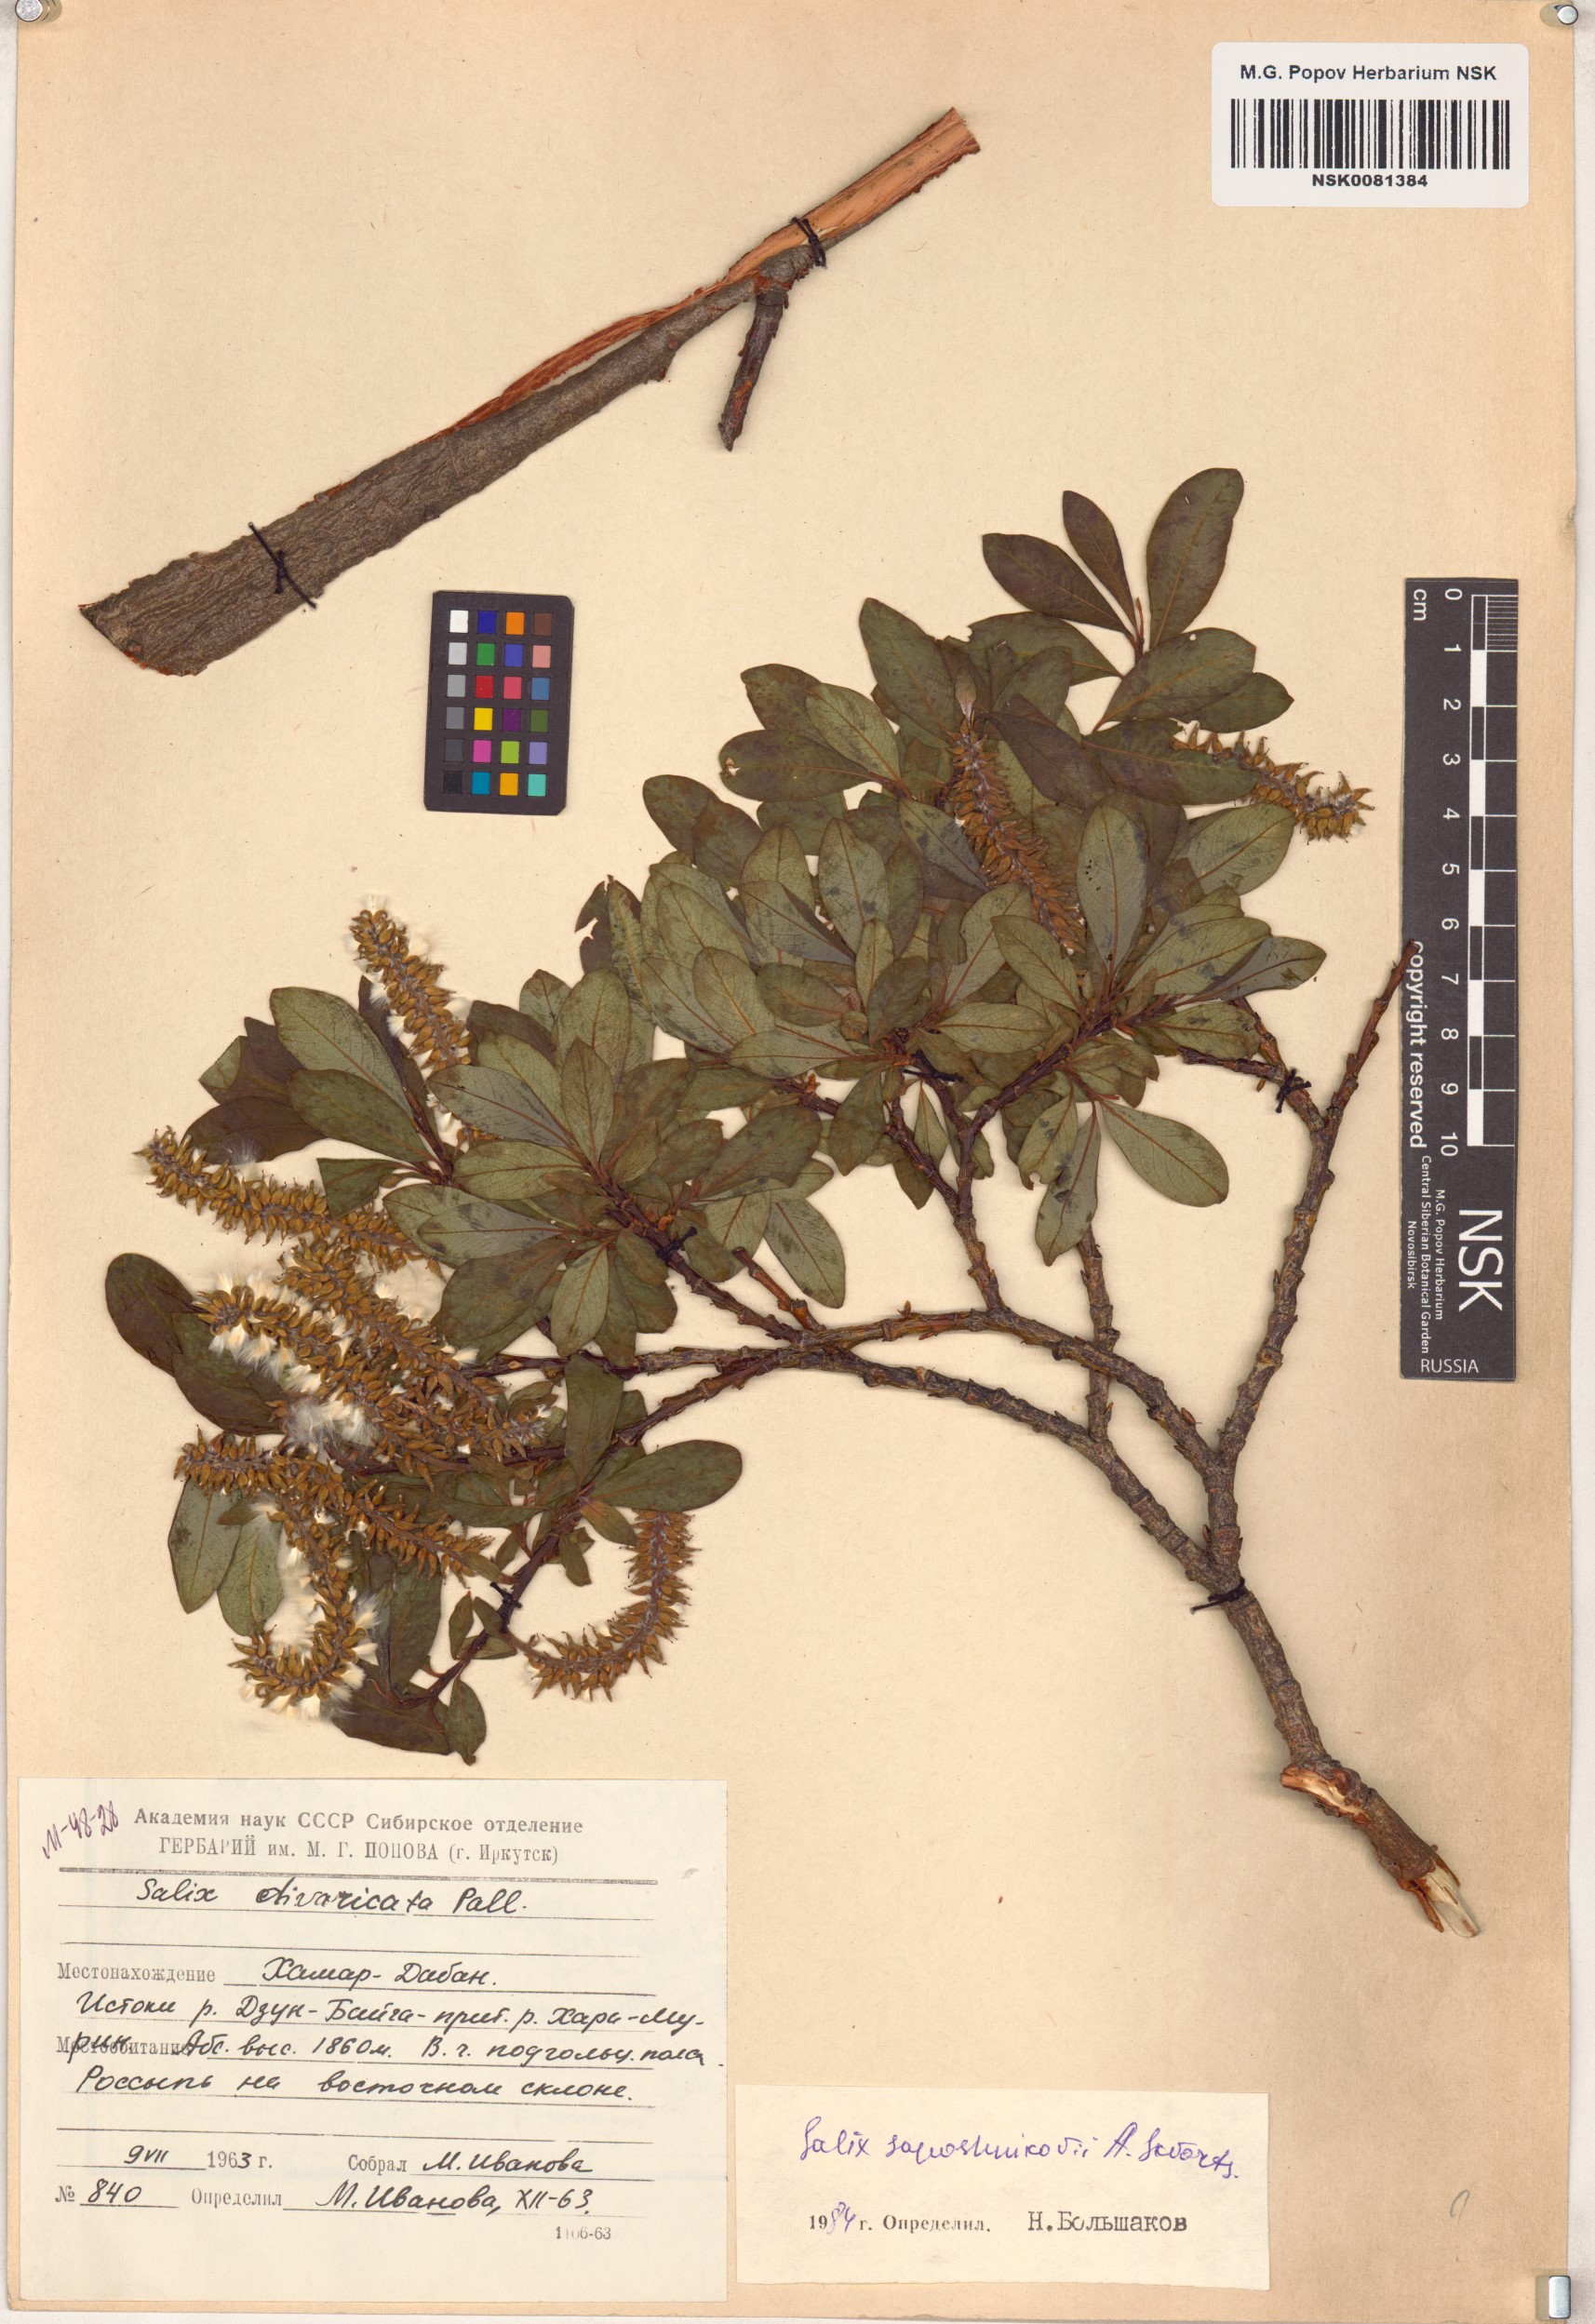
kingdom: Plantae
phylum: Tracheophyta
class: Magnoliopsida
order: Malpighiales
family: Salicaceae
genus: Salix
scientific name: Salix saposhnikovii
